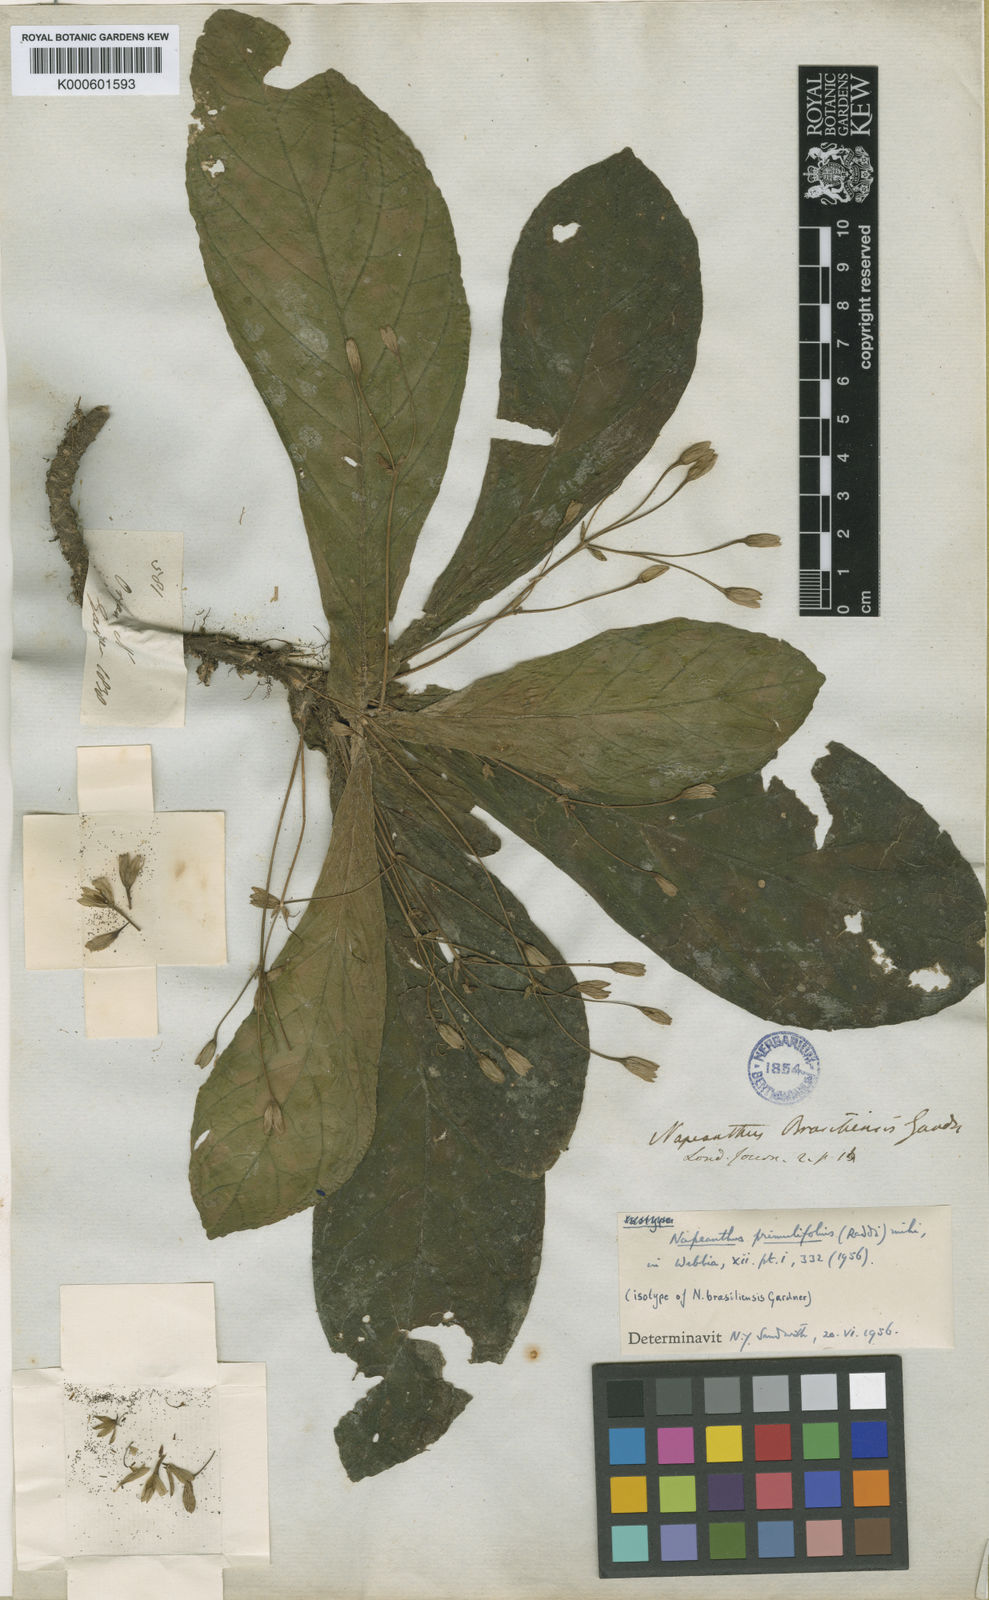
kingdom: Plantae
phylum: Tracheophyta
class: Magnoliopsida
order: Lamiales
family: Gesneriaceae
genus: Napeanthus
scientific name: Napeanthus primulifolius
